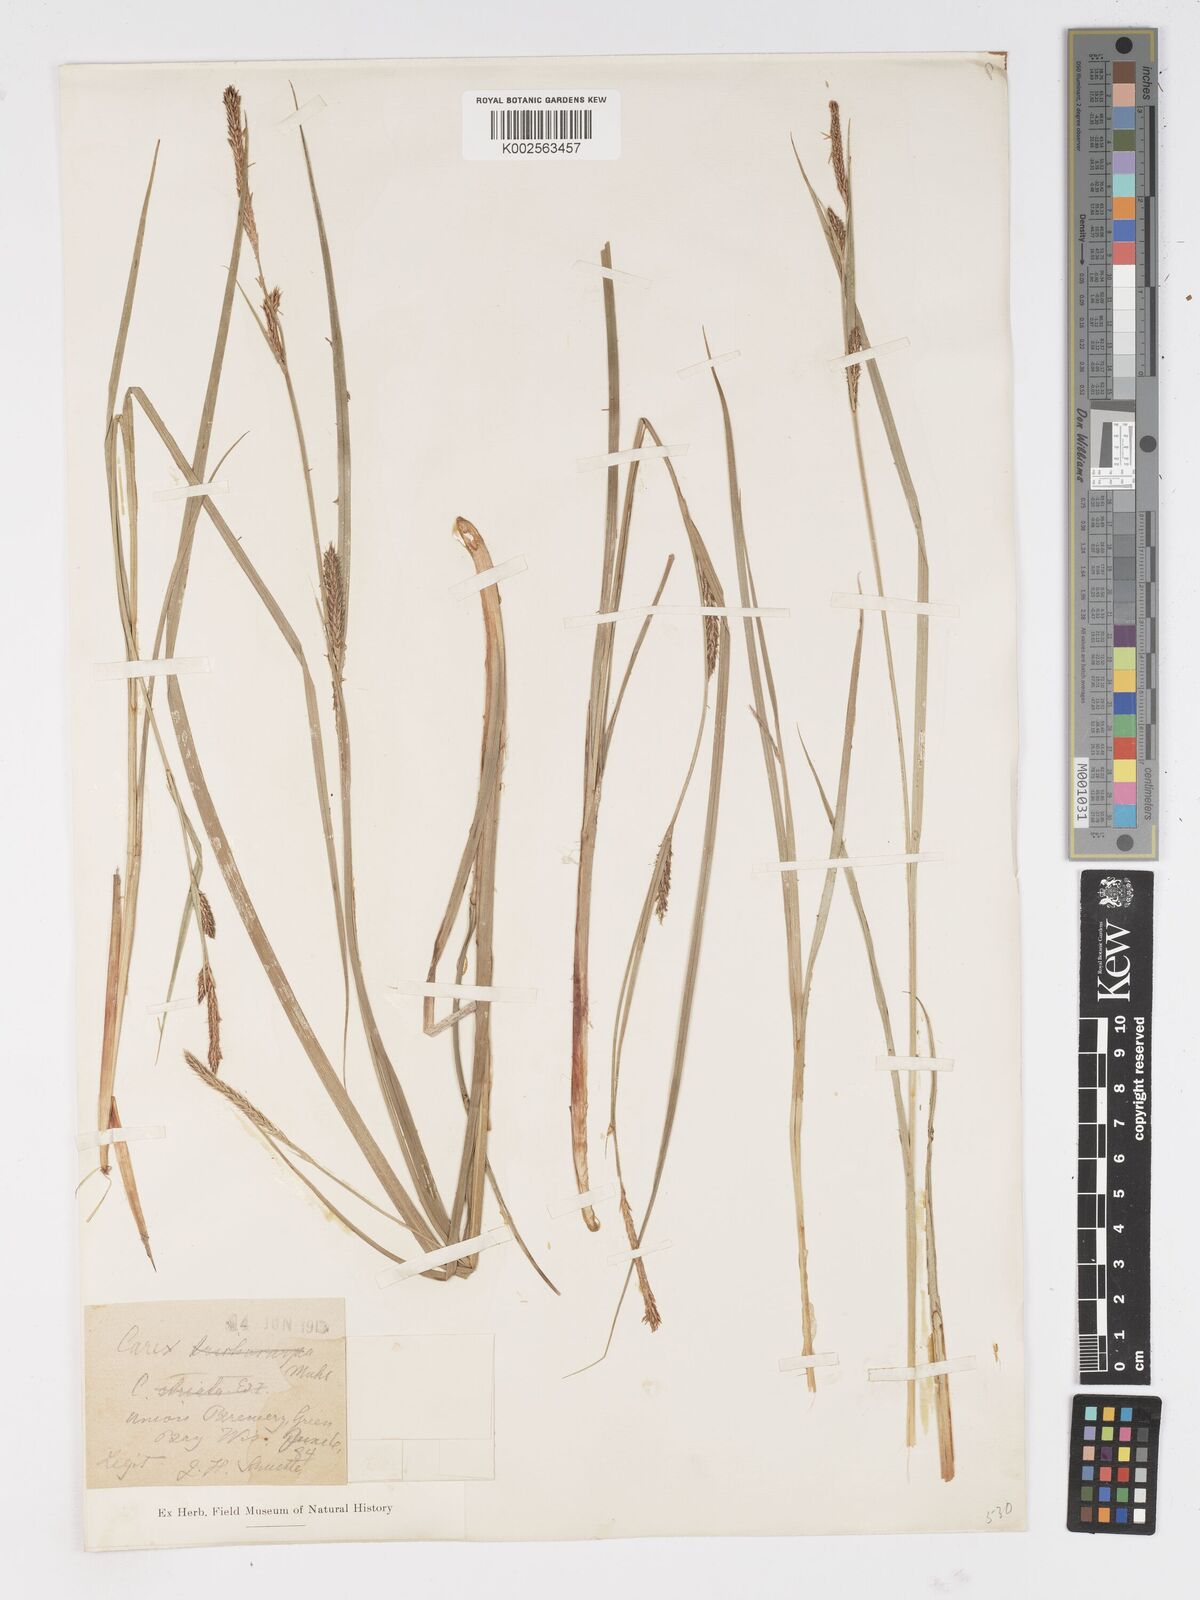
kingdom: Plantae
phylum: Tracheophyta
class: Liliopsida
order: Poales
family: Cyperaceae
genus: Carex
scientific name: Carex trichocarpa
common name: Hairy-fruited lake sedge
